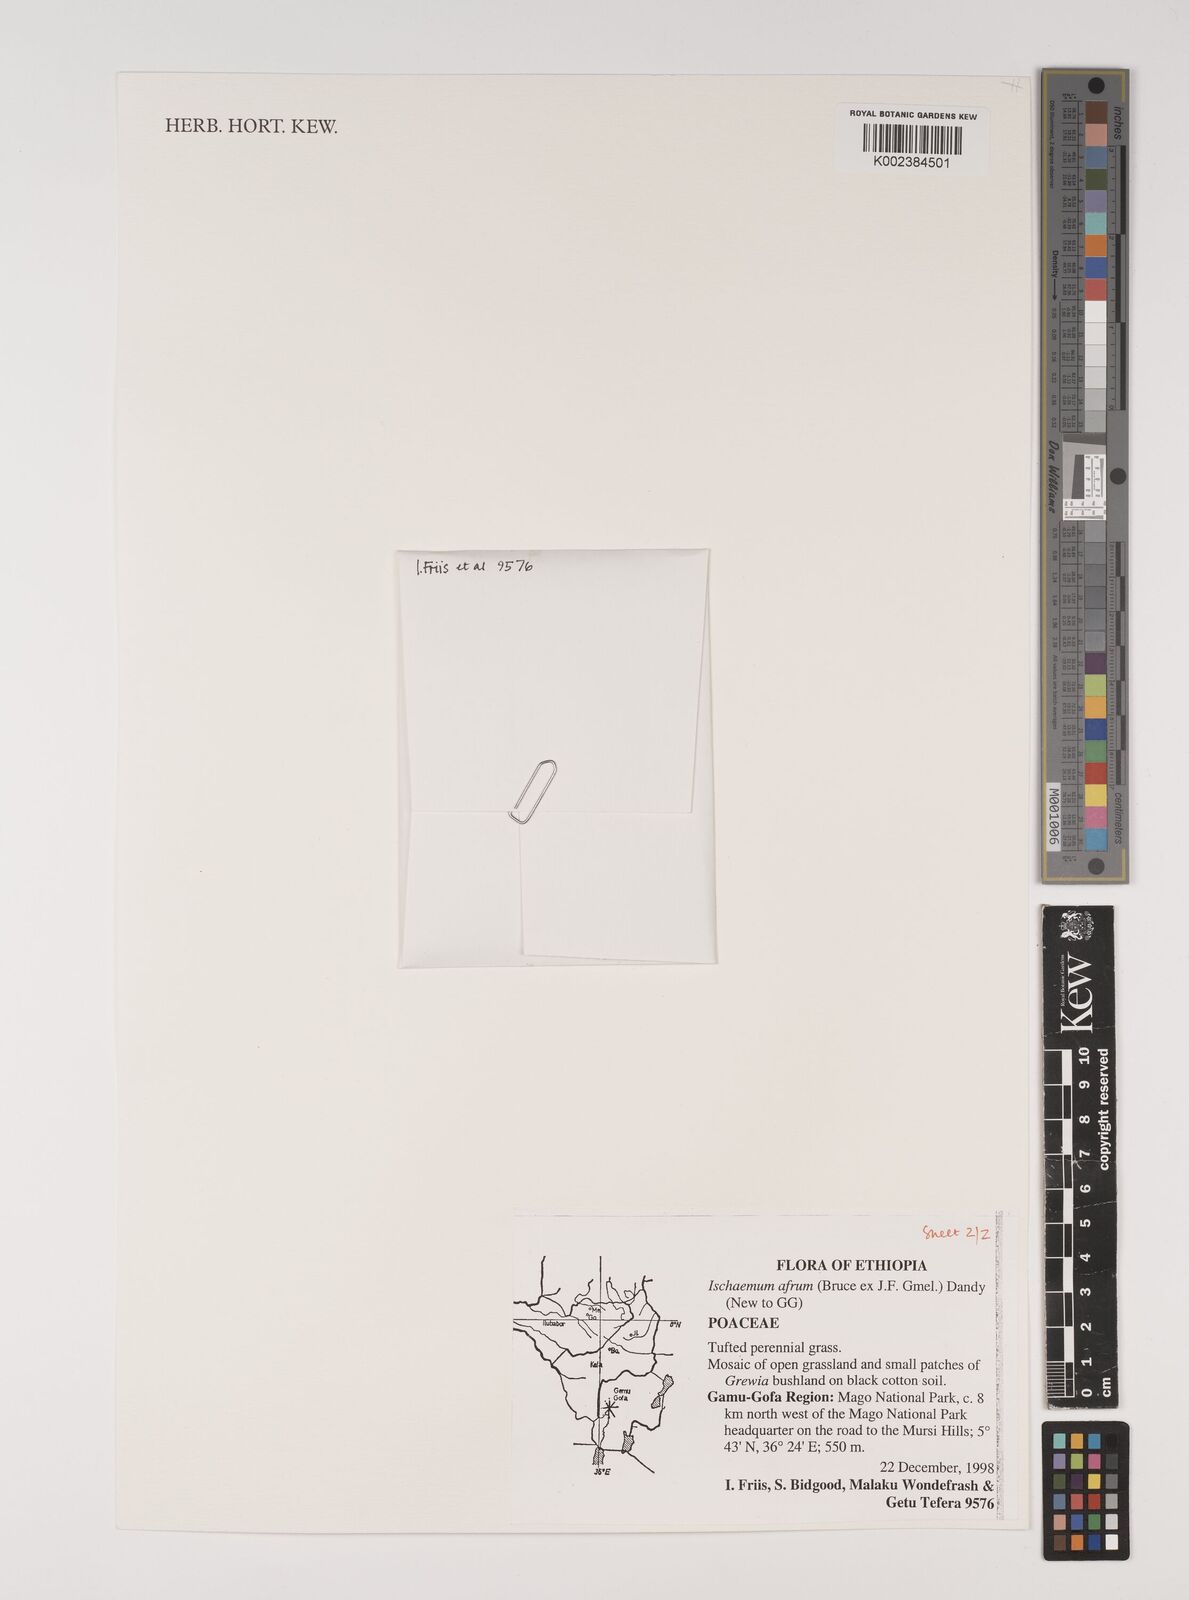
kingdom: Plantae
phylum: Tracheophyta
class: Liliopsida
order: Poales
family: Poaceae
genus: Ischaemum
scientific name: Ischaemum afrum
